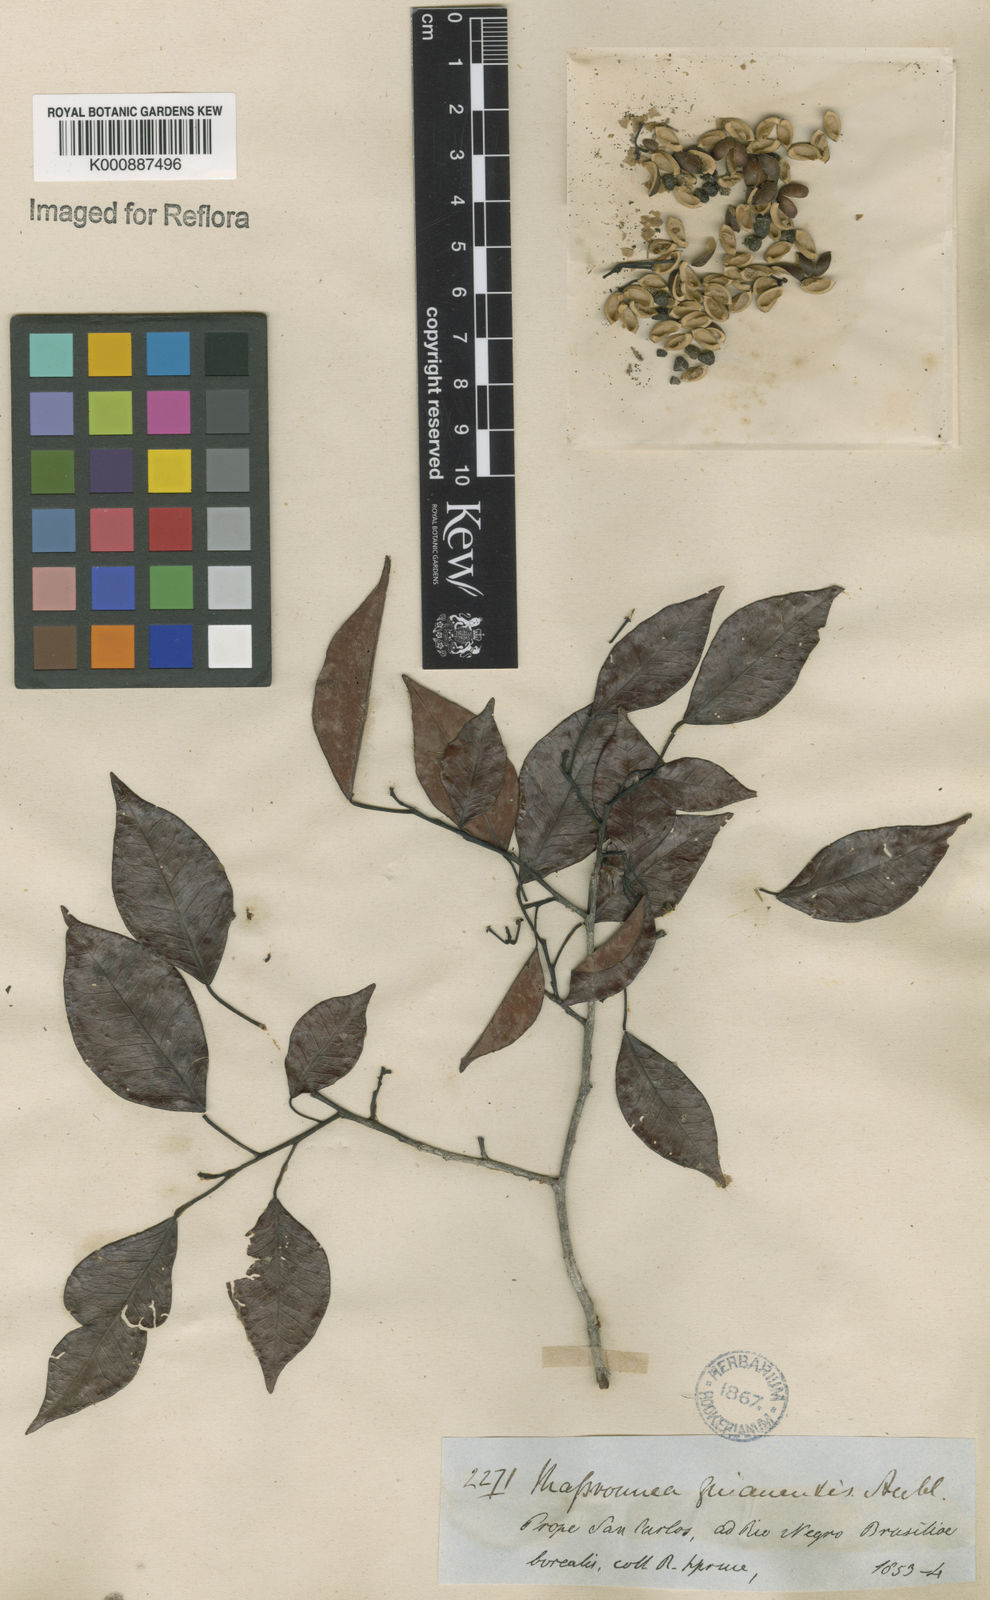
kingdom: Plantae
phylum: Tracheophyta
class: Magnoliopsida
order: Malpighiales
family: Euphorbiaceae
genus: Maprounea
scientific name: Maprounea guianensis
